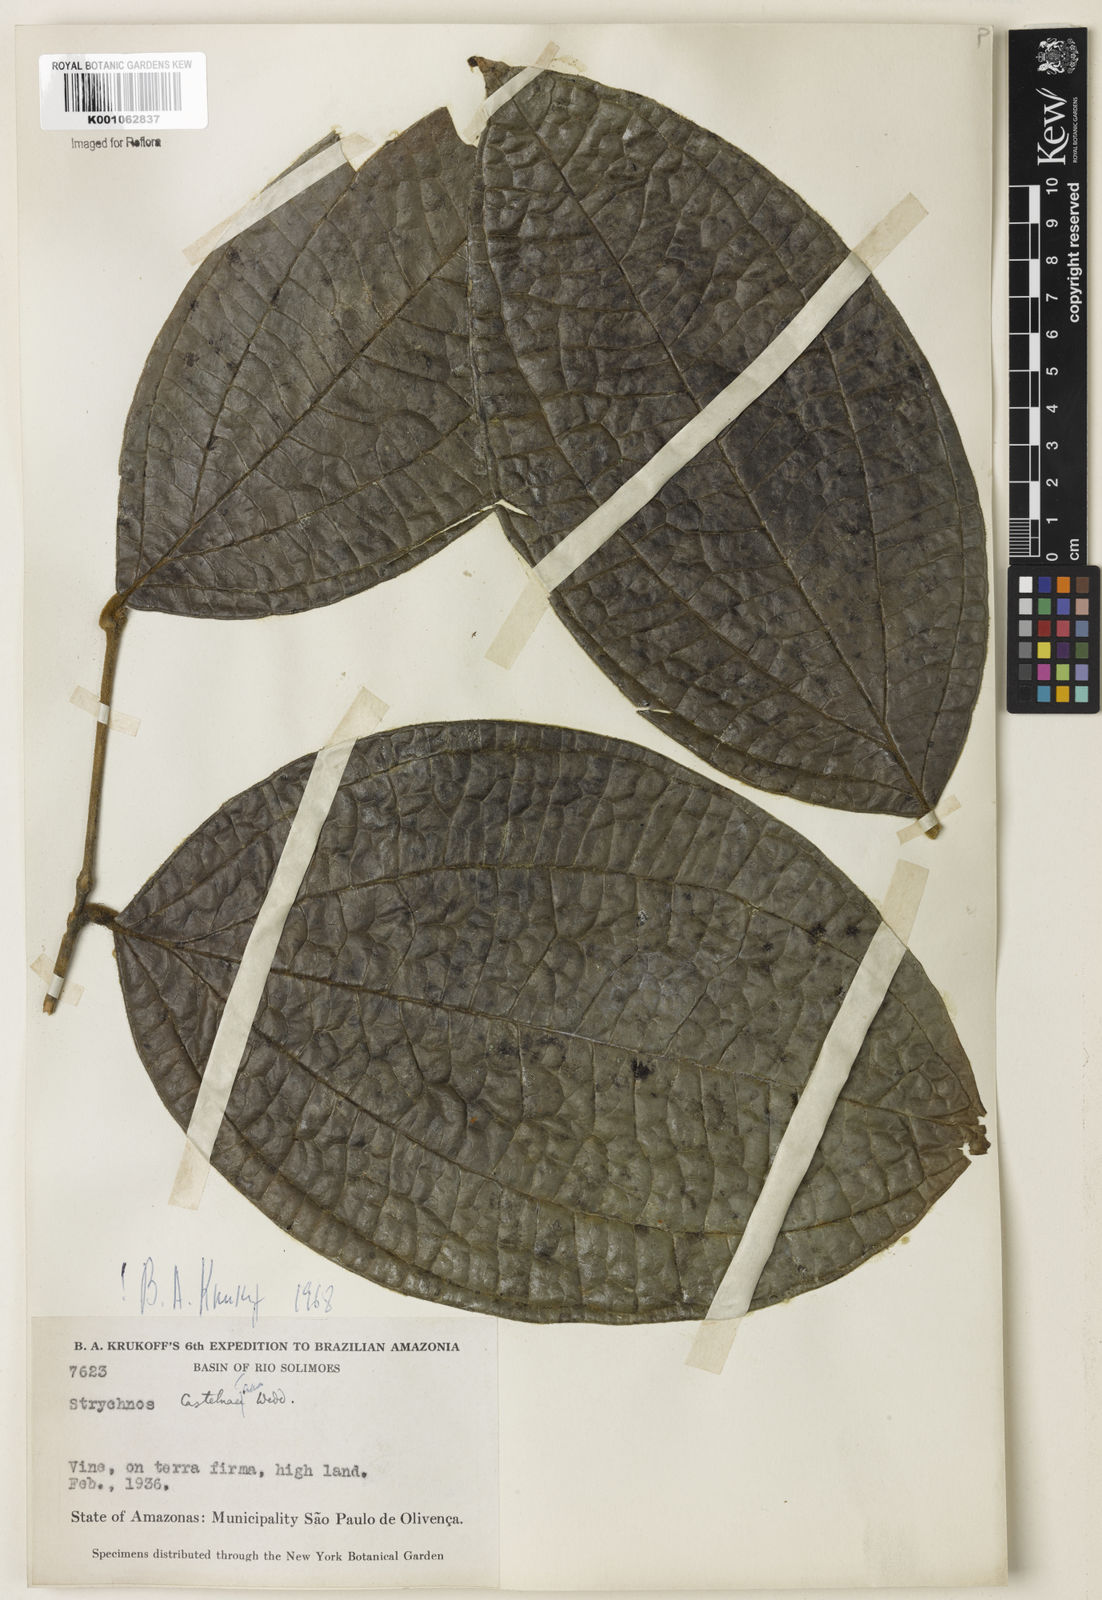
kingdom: Plantae
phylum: Tracheophyta
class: Magnoliopsida
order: Gentianales
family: Loganiaceae
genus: Strychnos
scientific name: Strychnos
